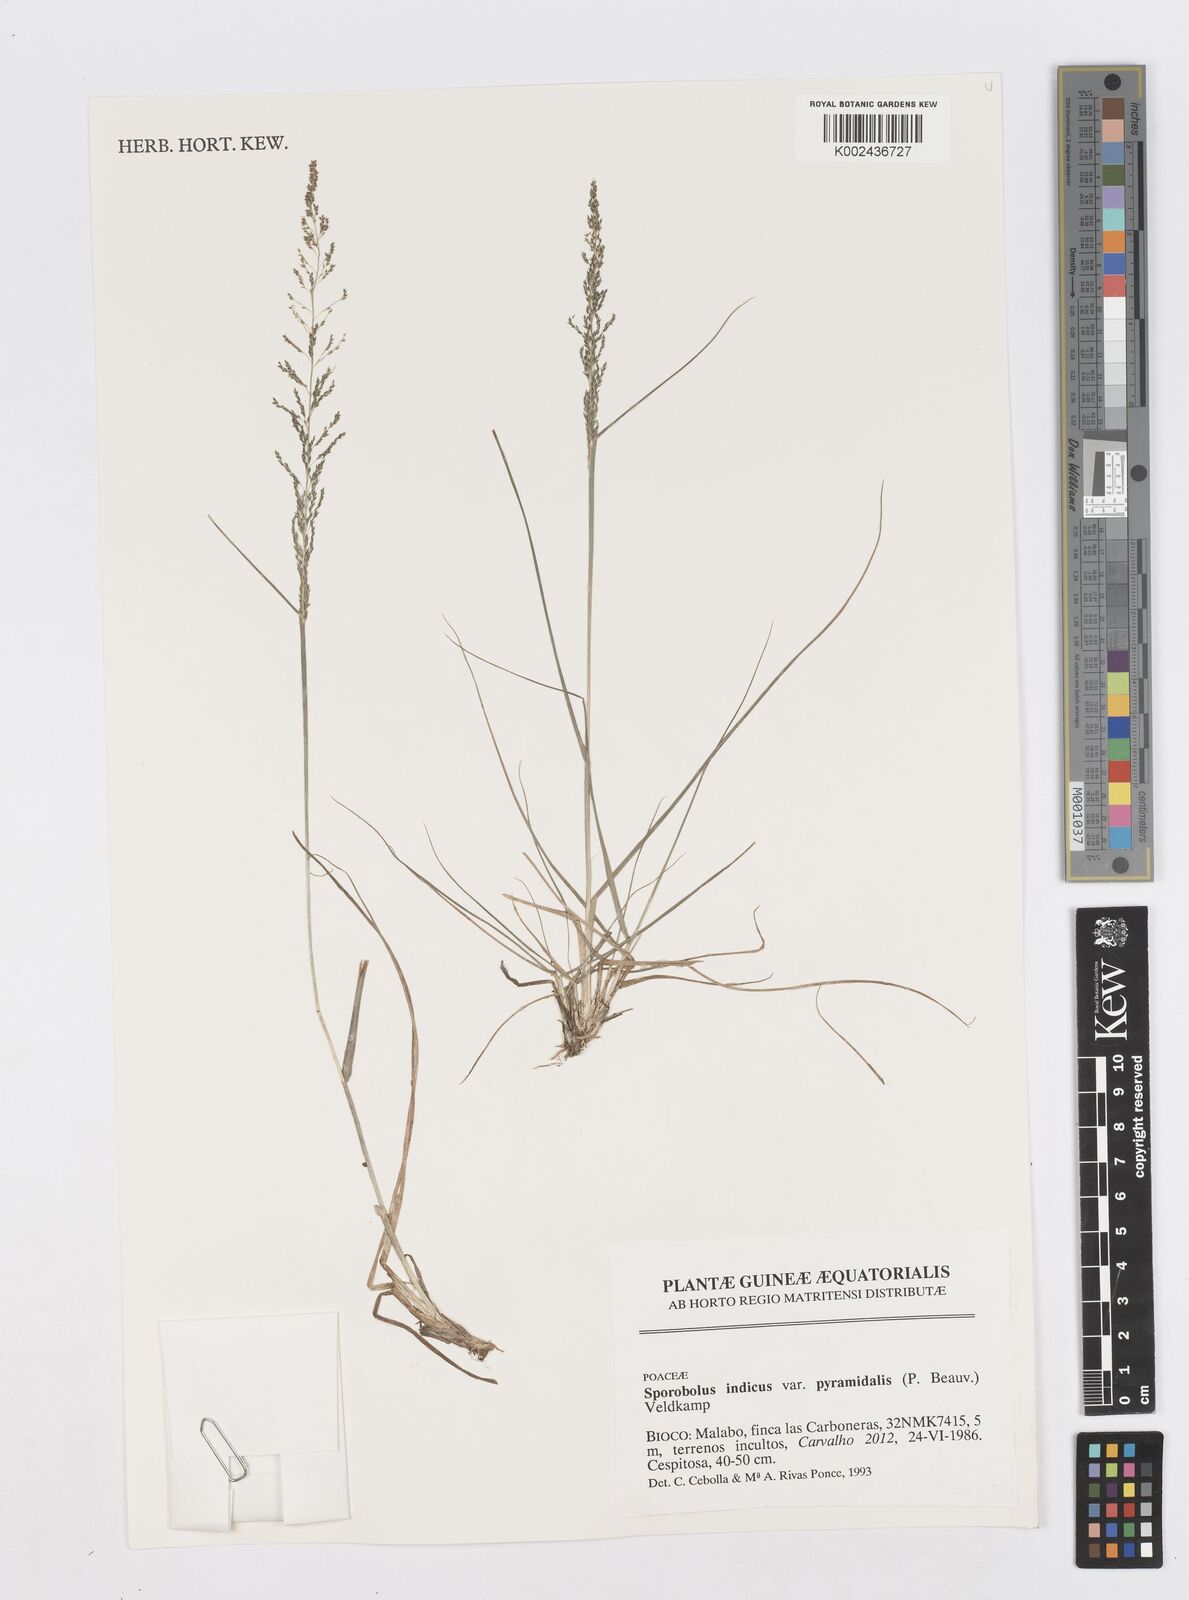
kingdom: Plantae
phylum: Tracheophyta
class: Liliopsida
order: Poales
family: Poaceae
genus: Sporobolus
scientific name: Sporobolus pyramidalis
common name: West indian dropseed
